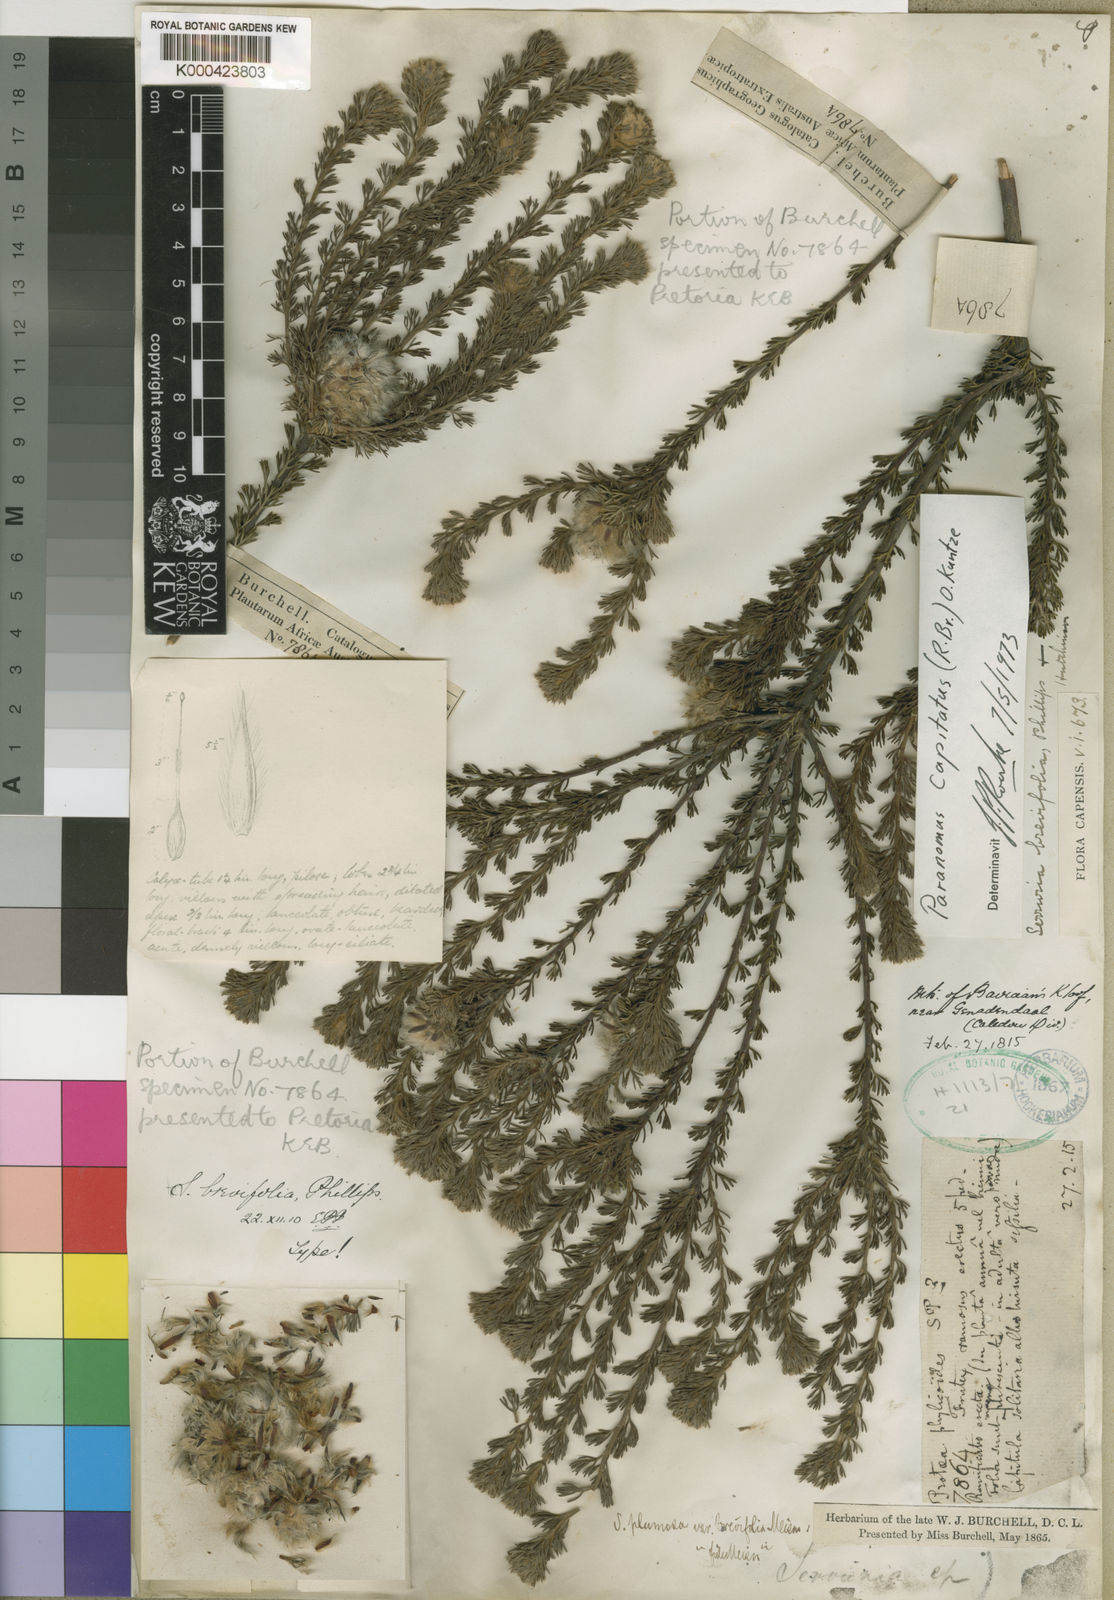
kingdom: Plantae
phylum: Tracheophyta
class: Magnoliopsida
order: Proteales
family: Proteaceae
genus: Serruria
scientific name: Serruria hirsuta
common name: Swartkops spiderhead
